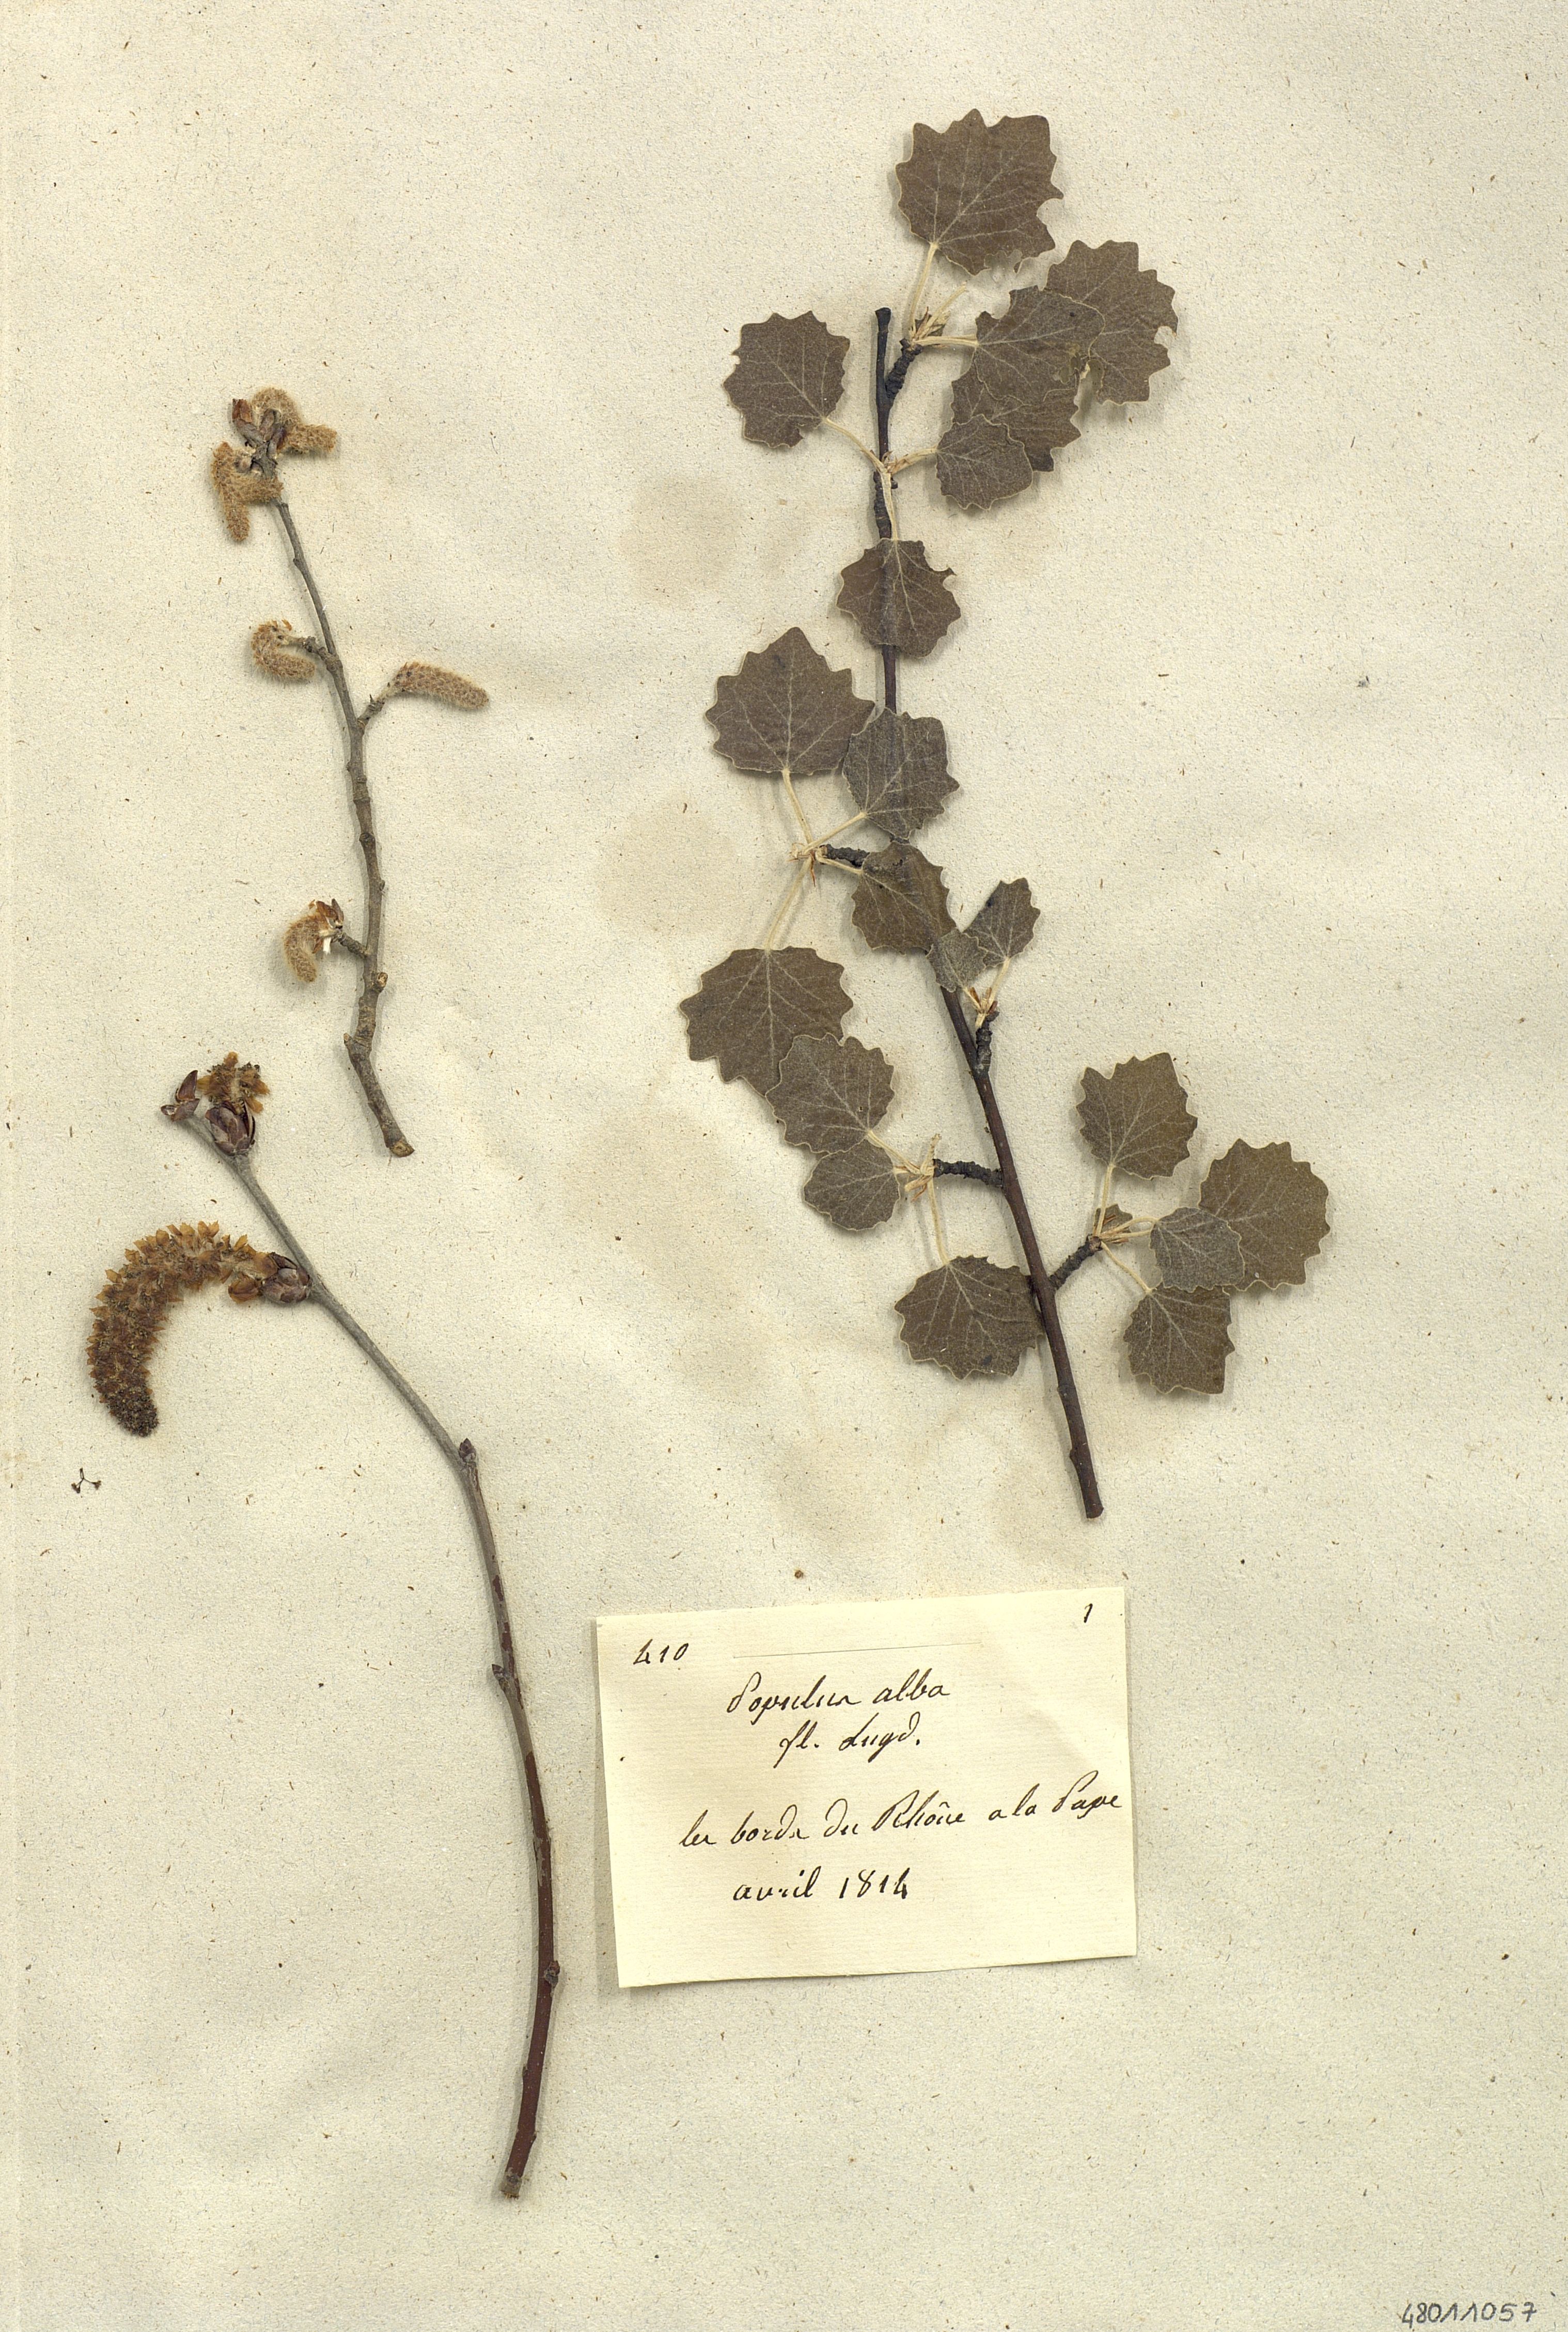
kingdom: Plantae
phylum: Tracheophyta
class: Magnoliopsida
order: Malpighiales
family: Salicaceae
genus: Populus
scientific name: Populus alba
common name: White poplar
